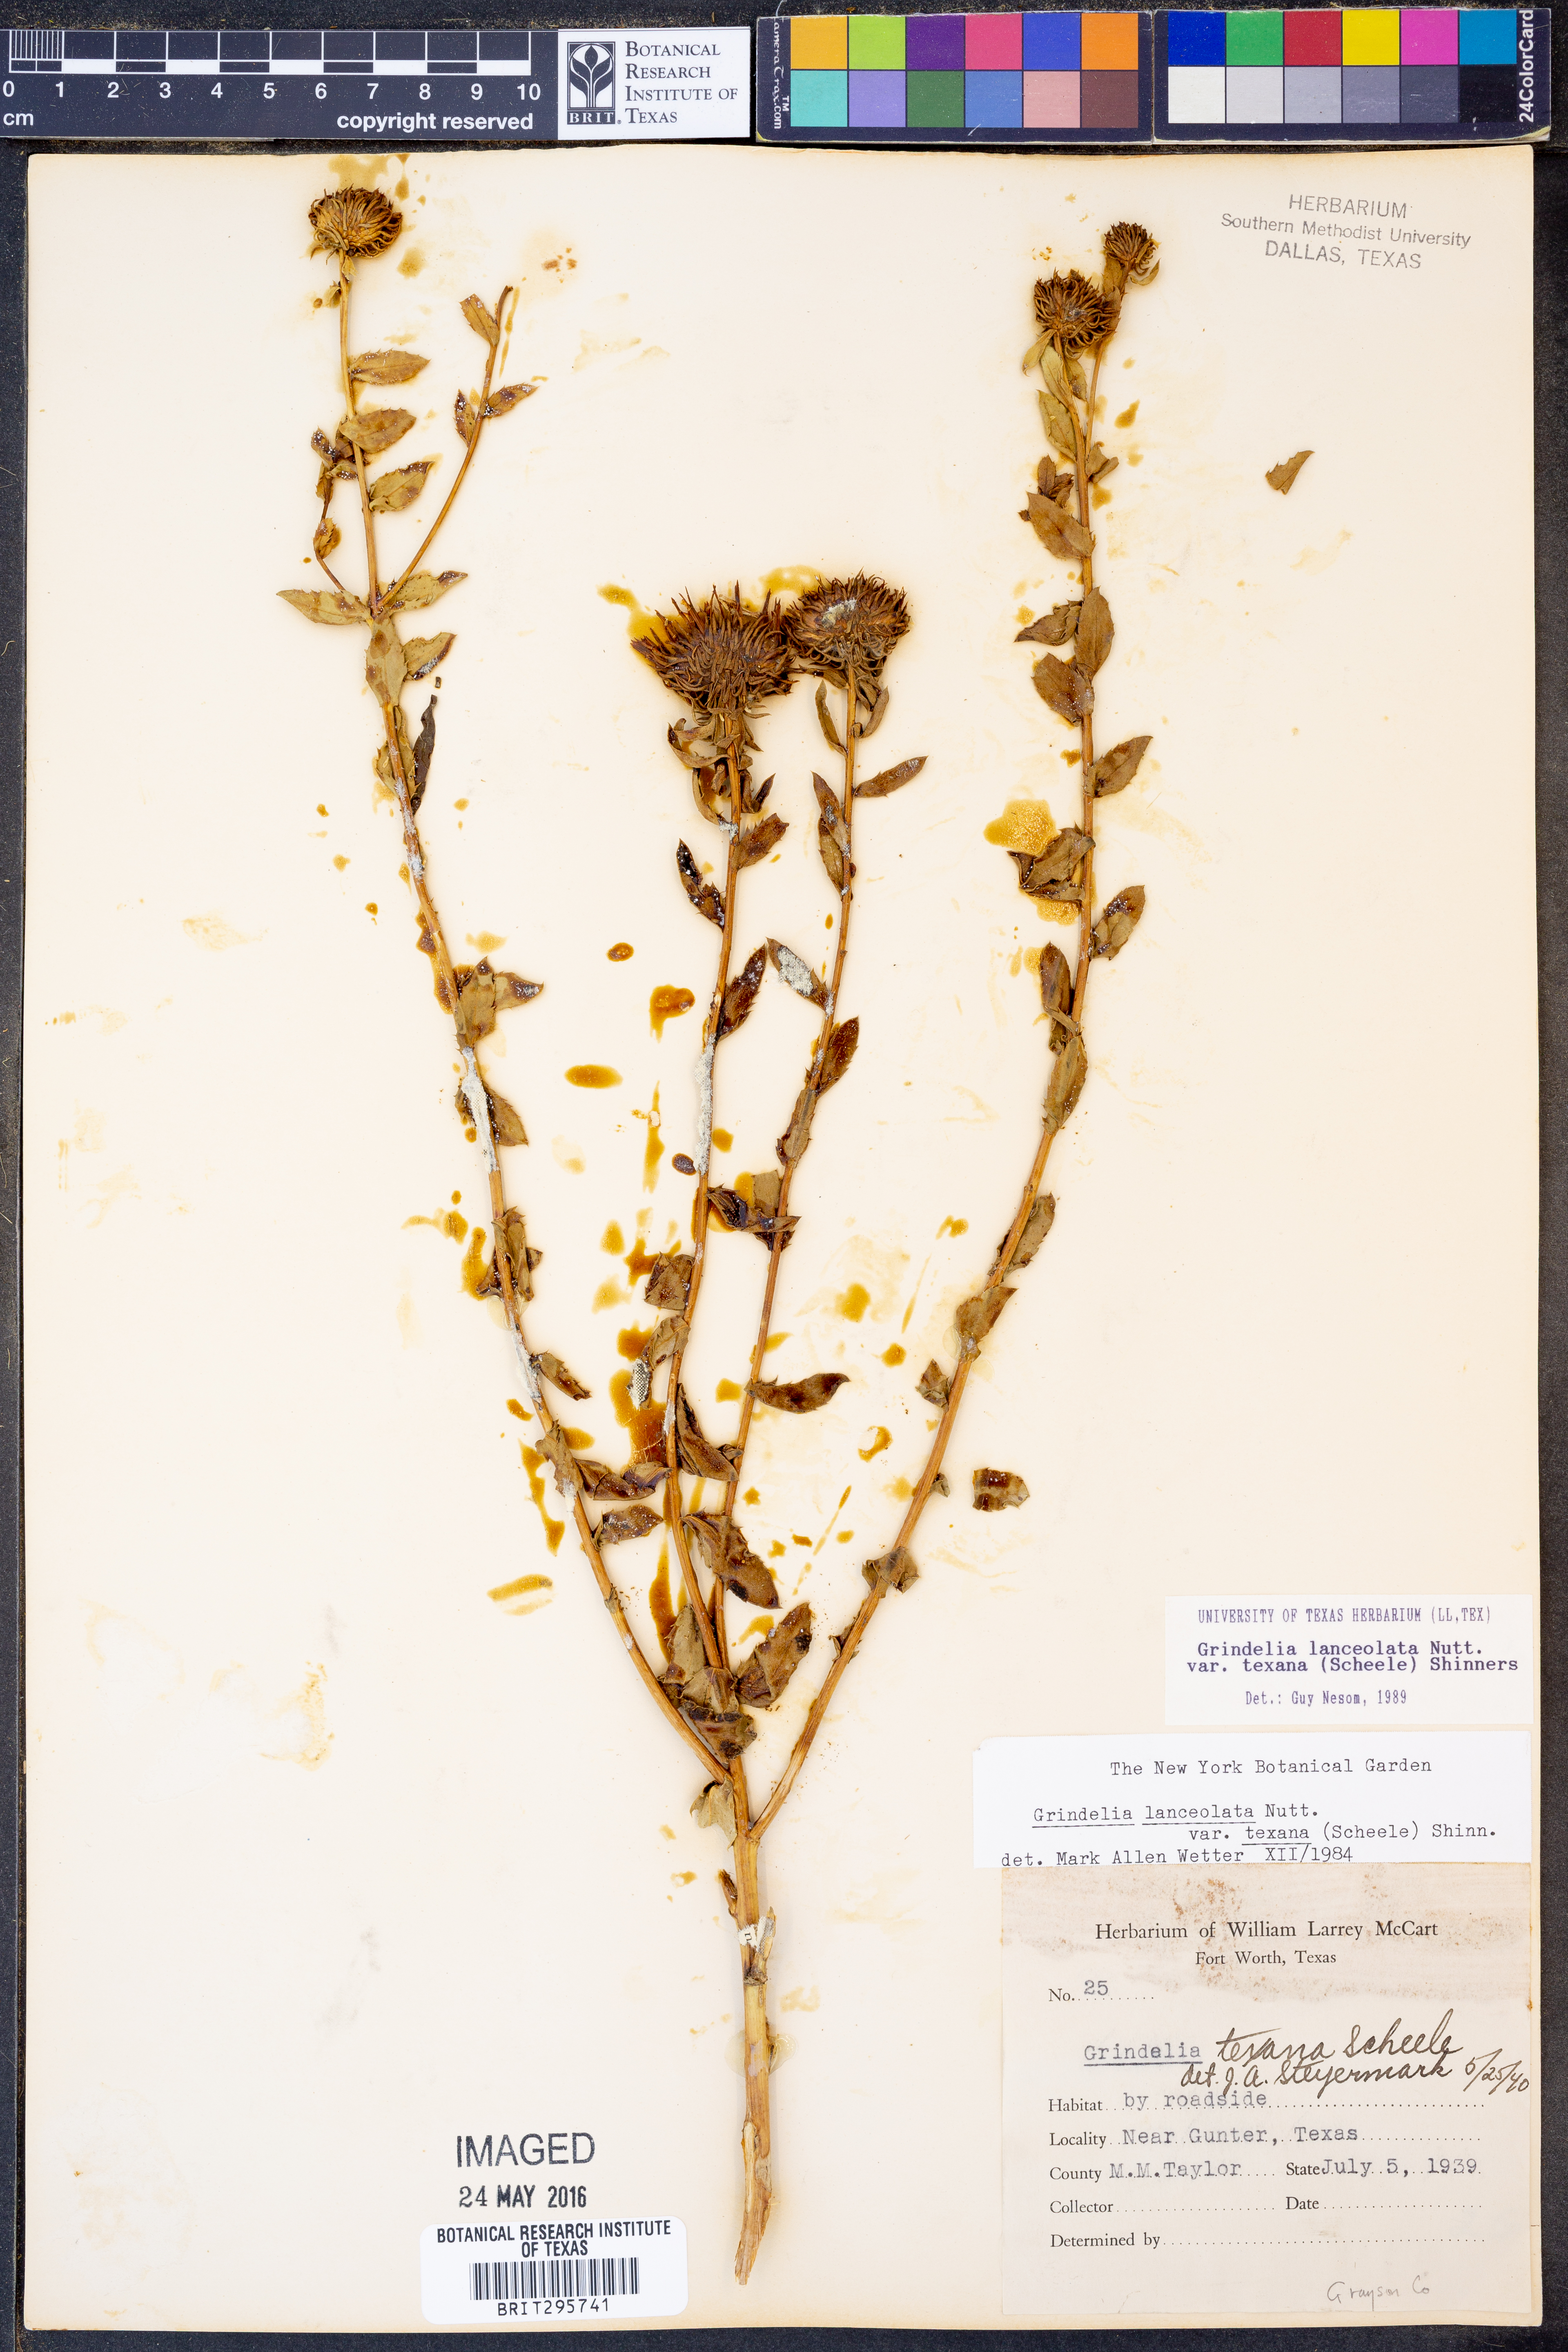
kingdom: Plantae
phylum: Tracheophyta
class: Magnoliopsida
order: Asterales
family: Asteraceae
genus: Grindelia
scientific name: Grindelia texana
